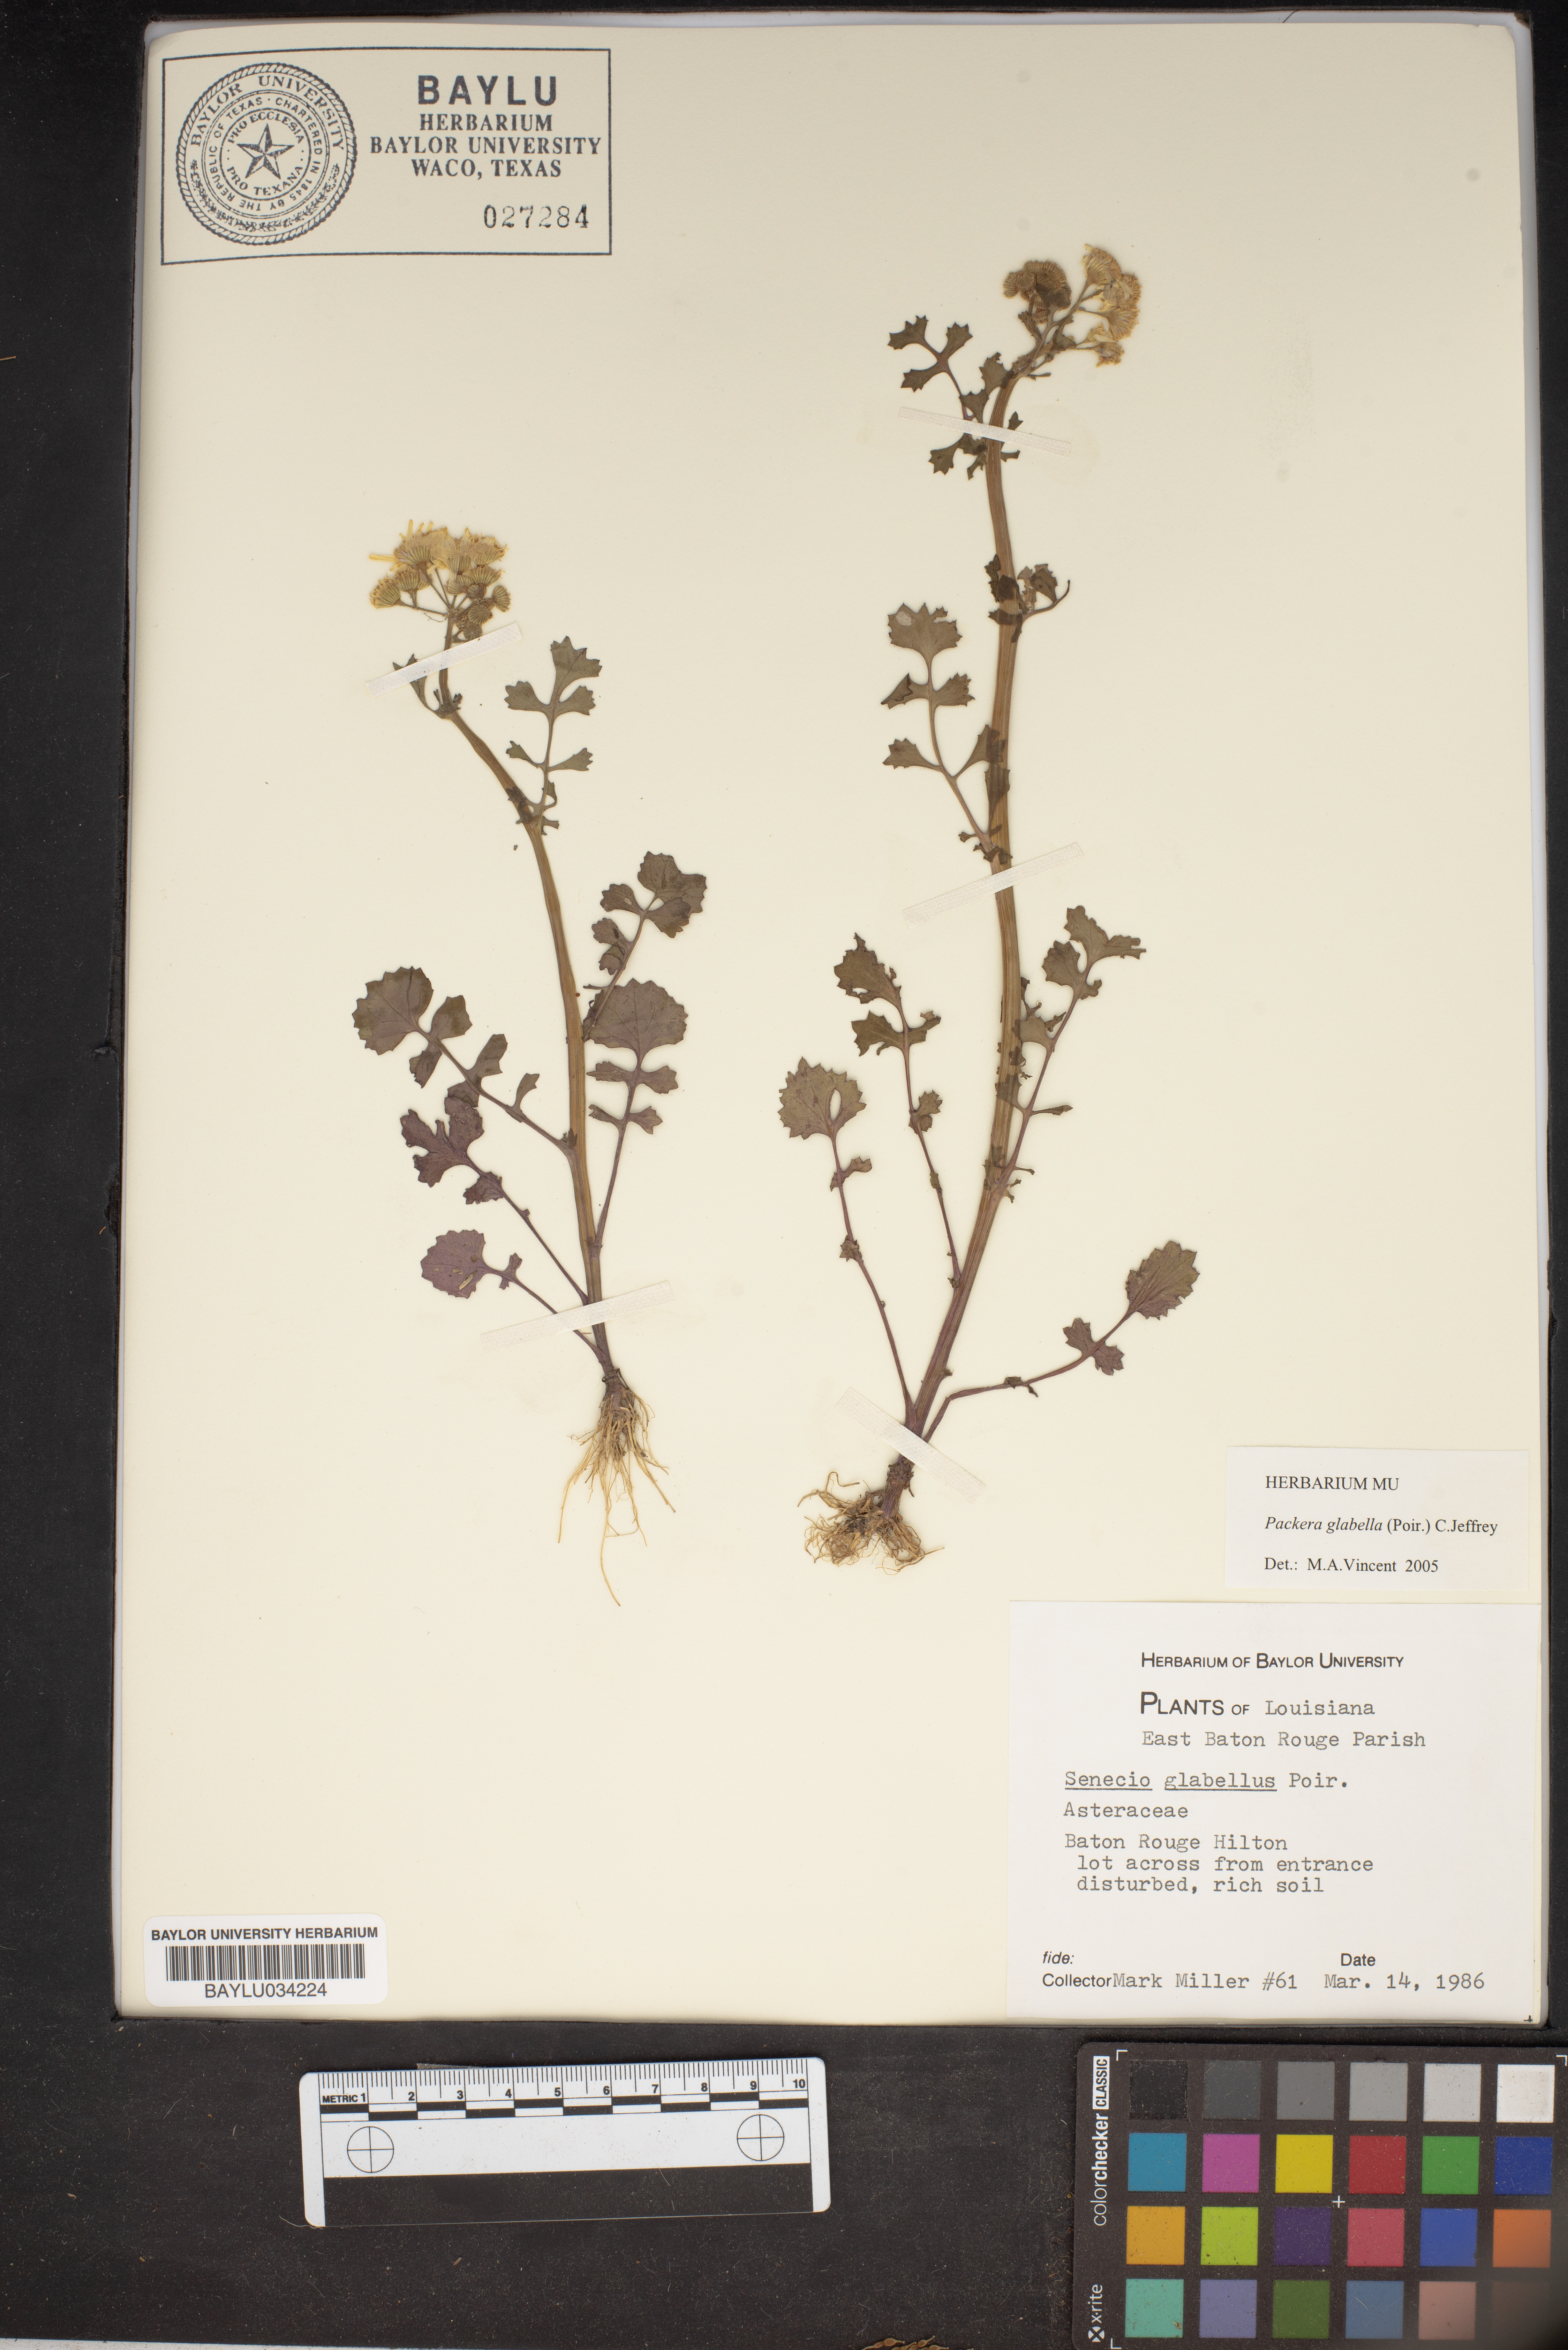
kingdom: Plantae
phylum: Tracheophyta
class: Magnoliopsida
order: Asterales
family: Asteraceae
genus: Packera
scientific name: Packera glabella
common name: Butterweed
